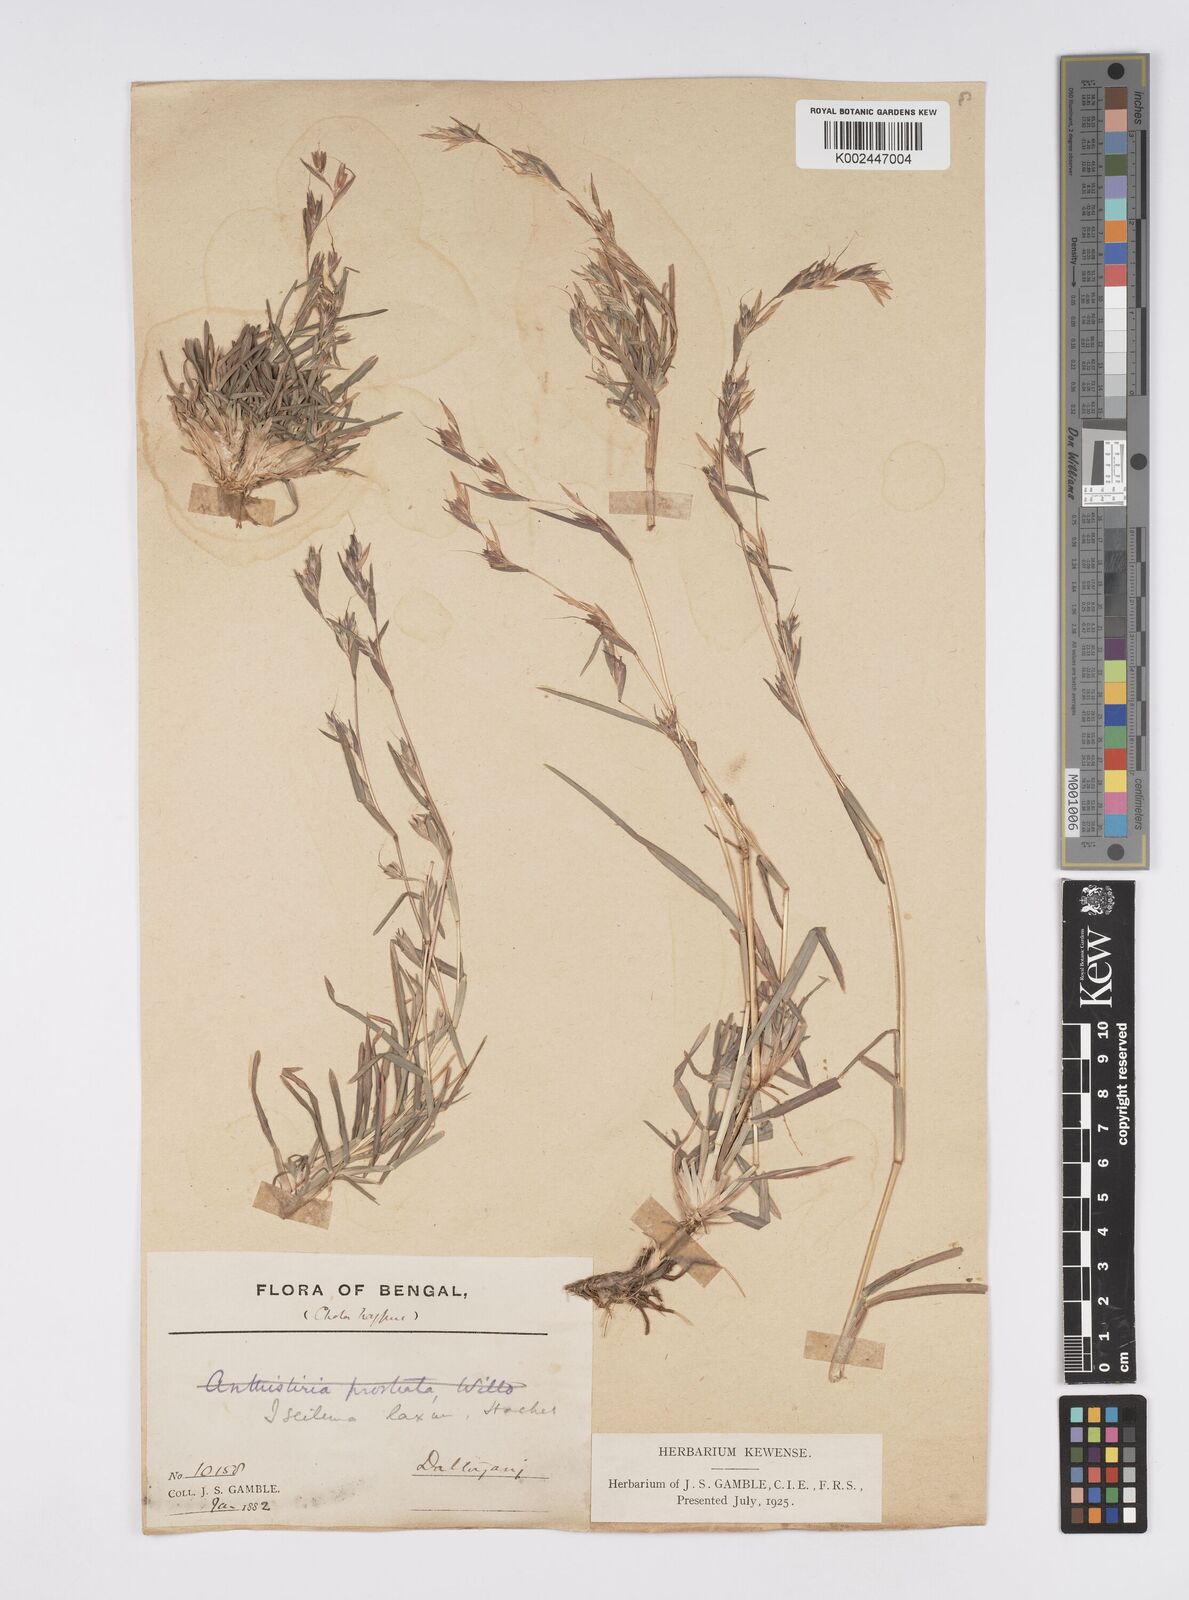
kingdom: Plantae
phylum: Tracheophyta
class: Liliopsida
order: Poales
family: Poaceae
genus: Iseilema
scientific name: Iseilema prostratum
